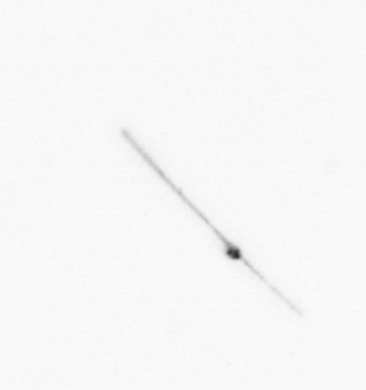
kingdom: Chromista
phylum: Ochrophyta
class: Bacillariophyceae
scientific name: Bacillariophyceae
